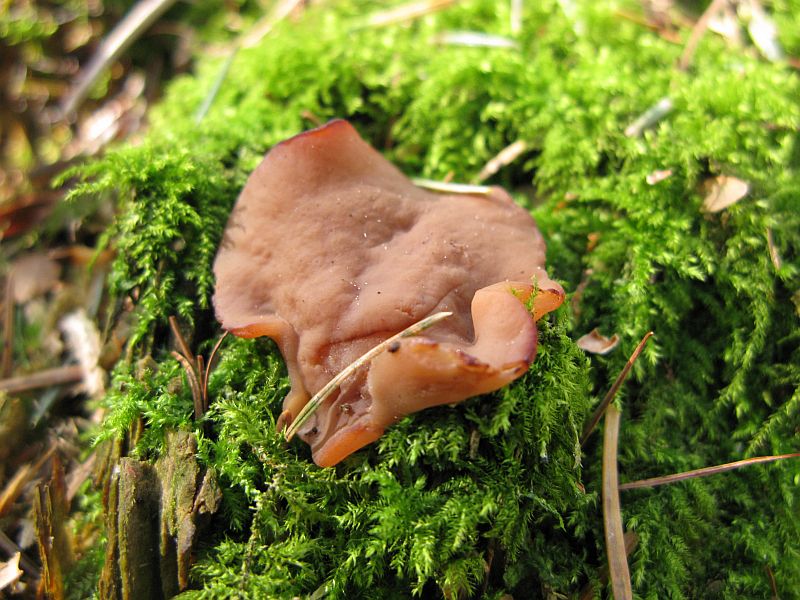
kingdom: Fungi
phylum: Ascomycota
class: Pezizomycetes
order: Pezizales
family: Discinaceae
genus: Discina
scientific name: Discina ancilis
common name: udbredt stenmorkel
